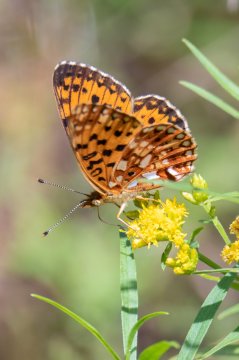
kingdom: Animalia
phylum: Arthropoda
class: Insecta
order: Lepidoptera
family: Nymphalidae
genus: Boloria
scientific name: Boloria selene
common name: Silver-bordered Fritillary
